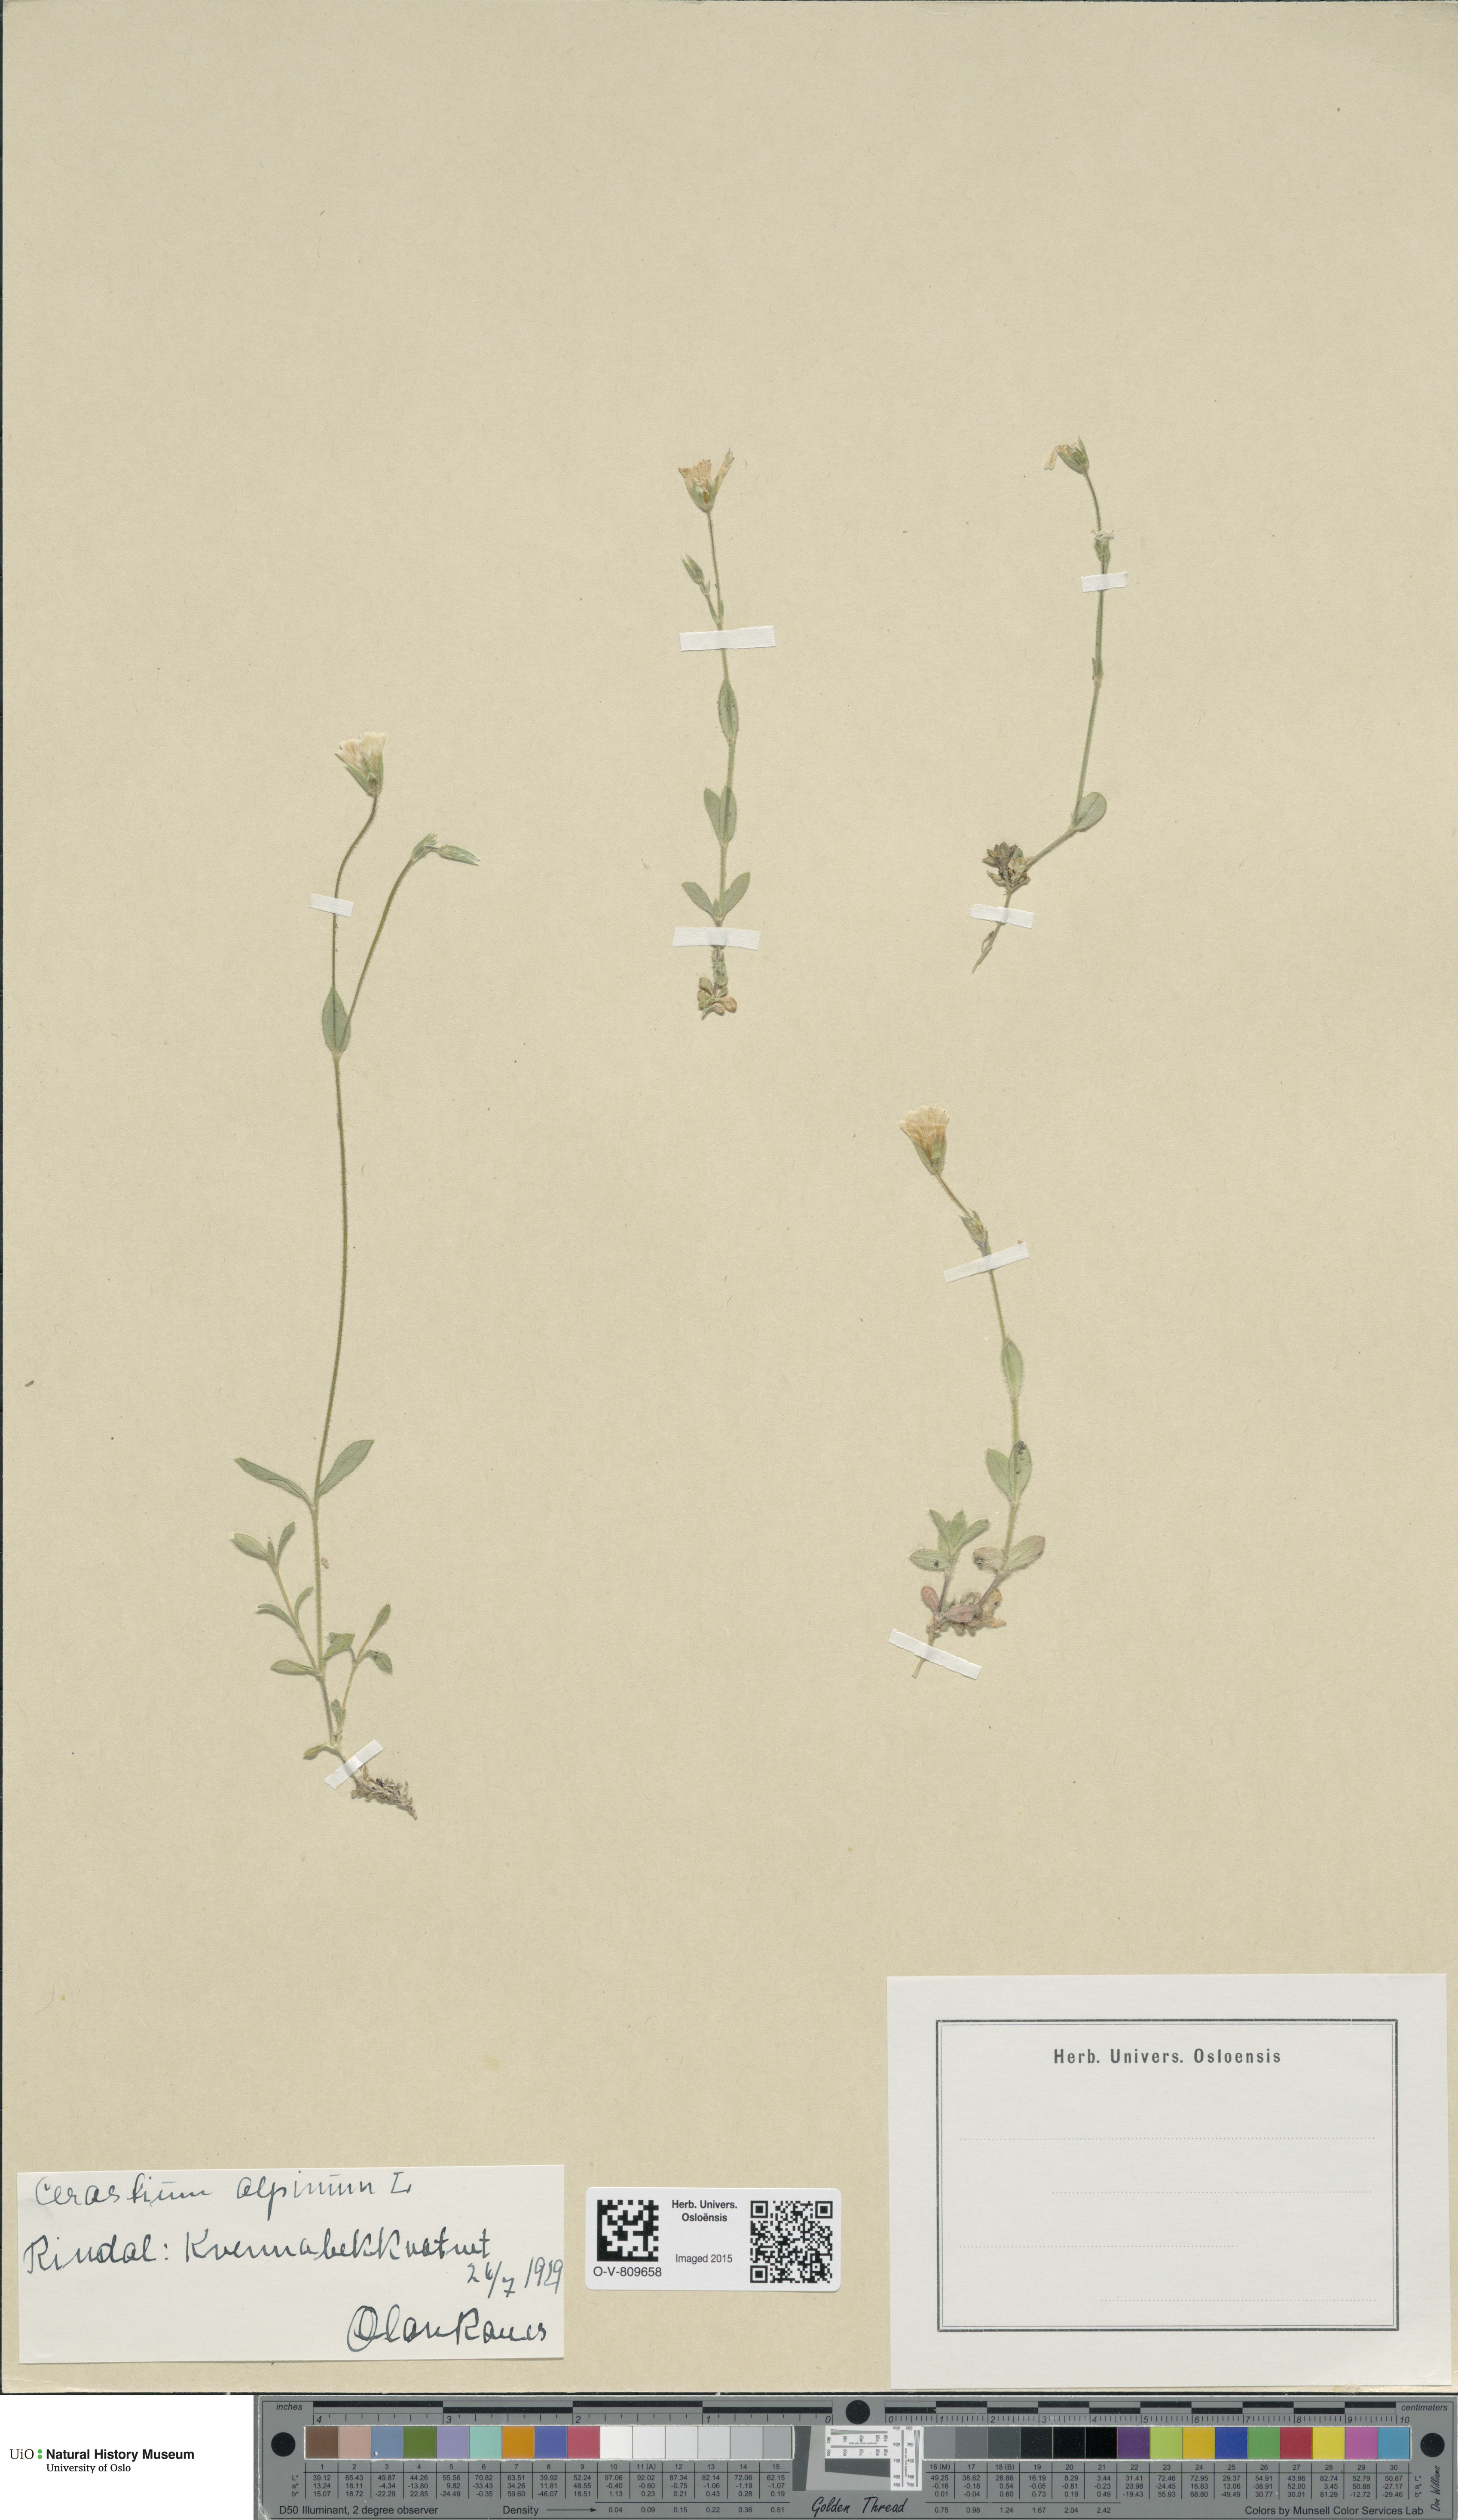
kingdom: Plantae
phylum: Tracheophyta
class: Magnoliopsida
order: Caryophyllales
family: Caryophyllaceae
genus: Cerastium
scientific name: Cerastium alpinum
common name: Alpine mouse-ear
